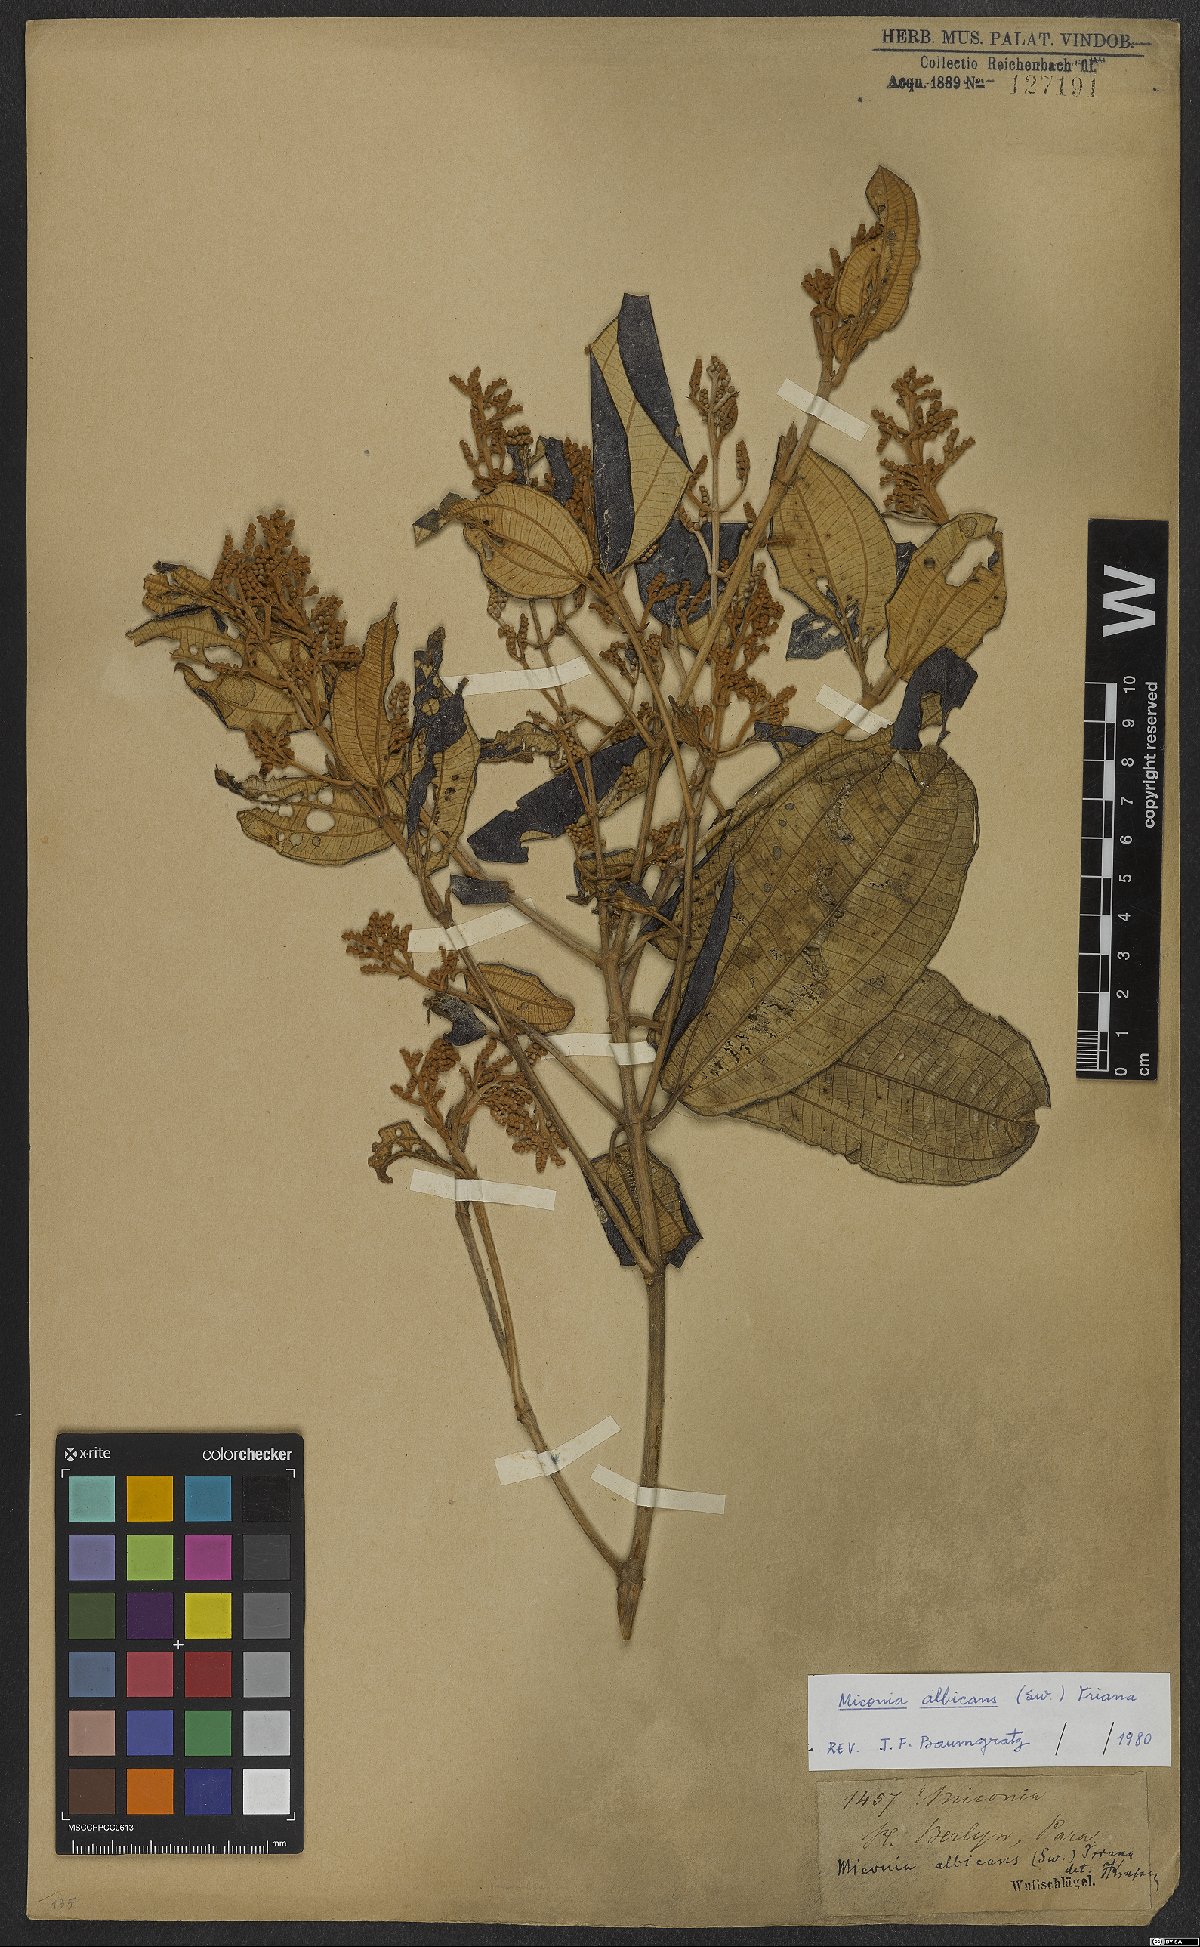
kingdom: Plantae
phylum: Tracheophyta
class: Magnoliopsida
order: Myrtales
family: Melastomataceae
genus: Miconia
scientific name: Miconia albicans
